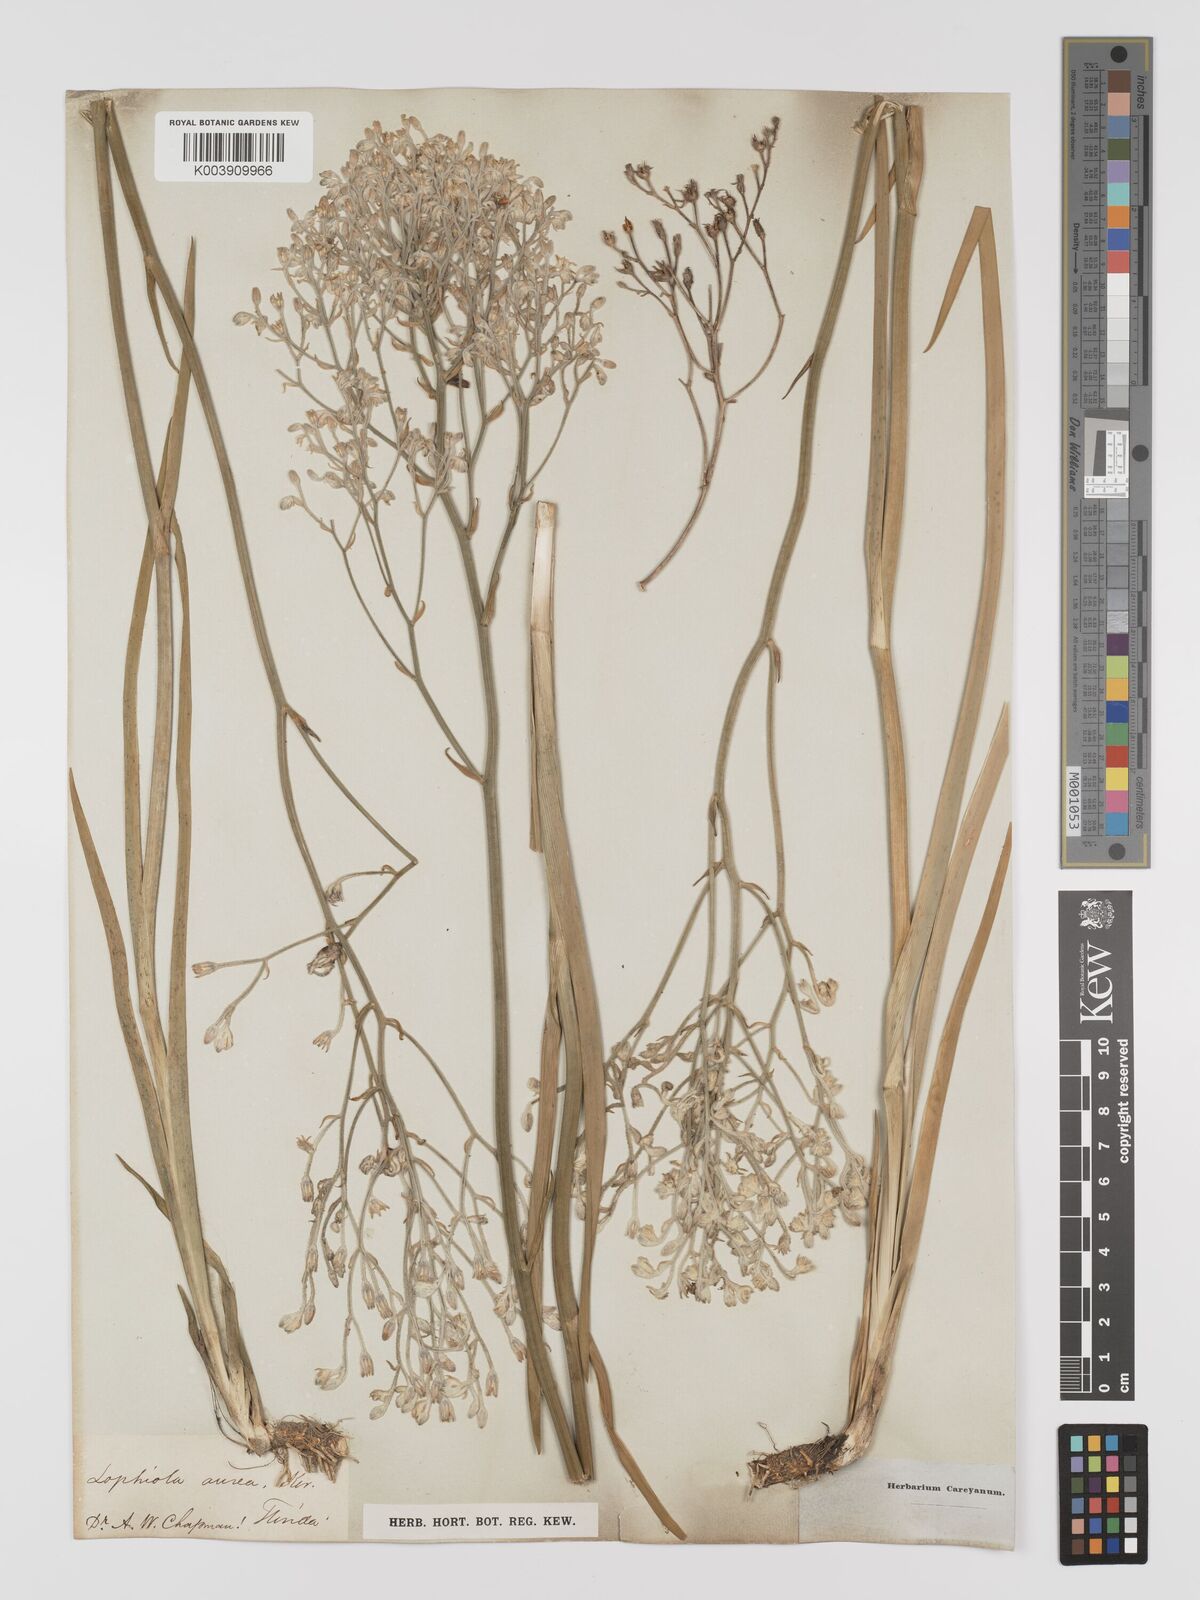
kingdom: Plantae
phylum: Tracheophyta
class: Liliopsida
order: Dioscoreales
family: Nartheciaceae
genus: Lophiola
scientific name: Lophiola aurea
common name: Golden-crest
